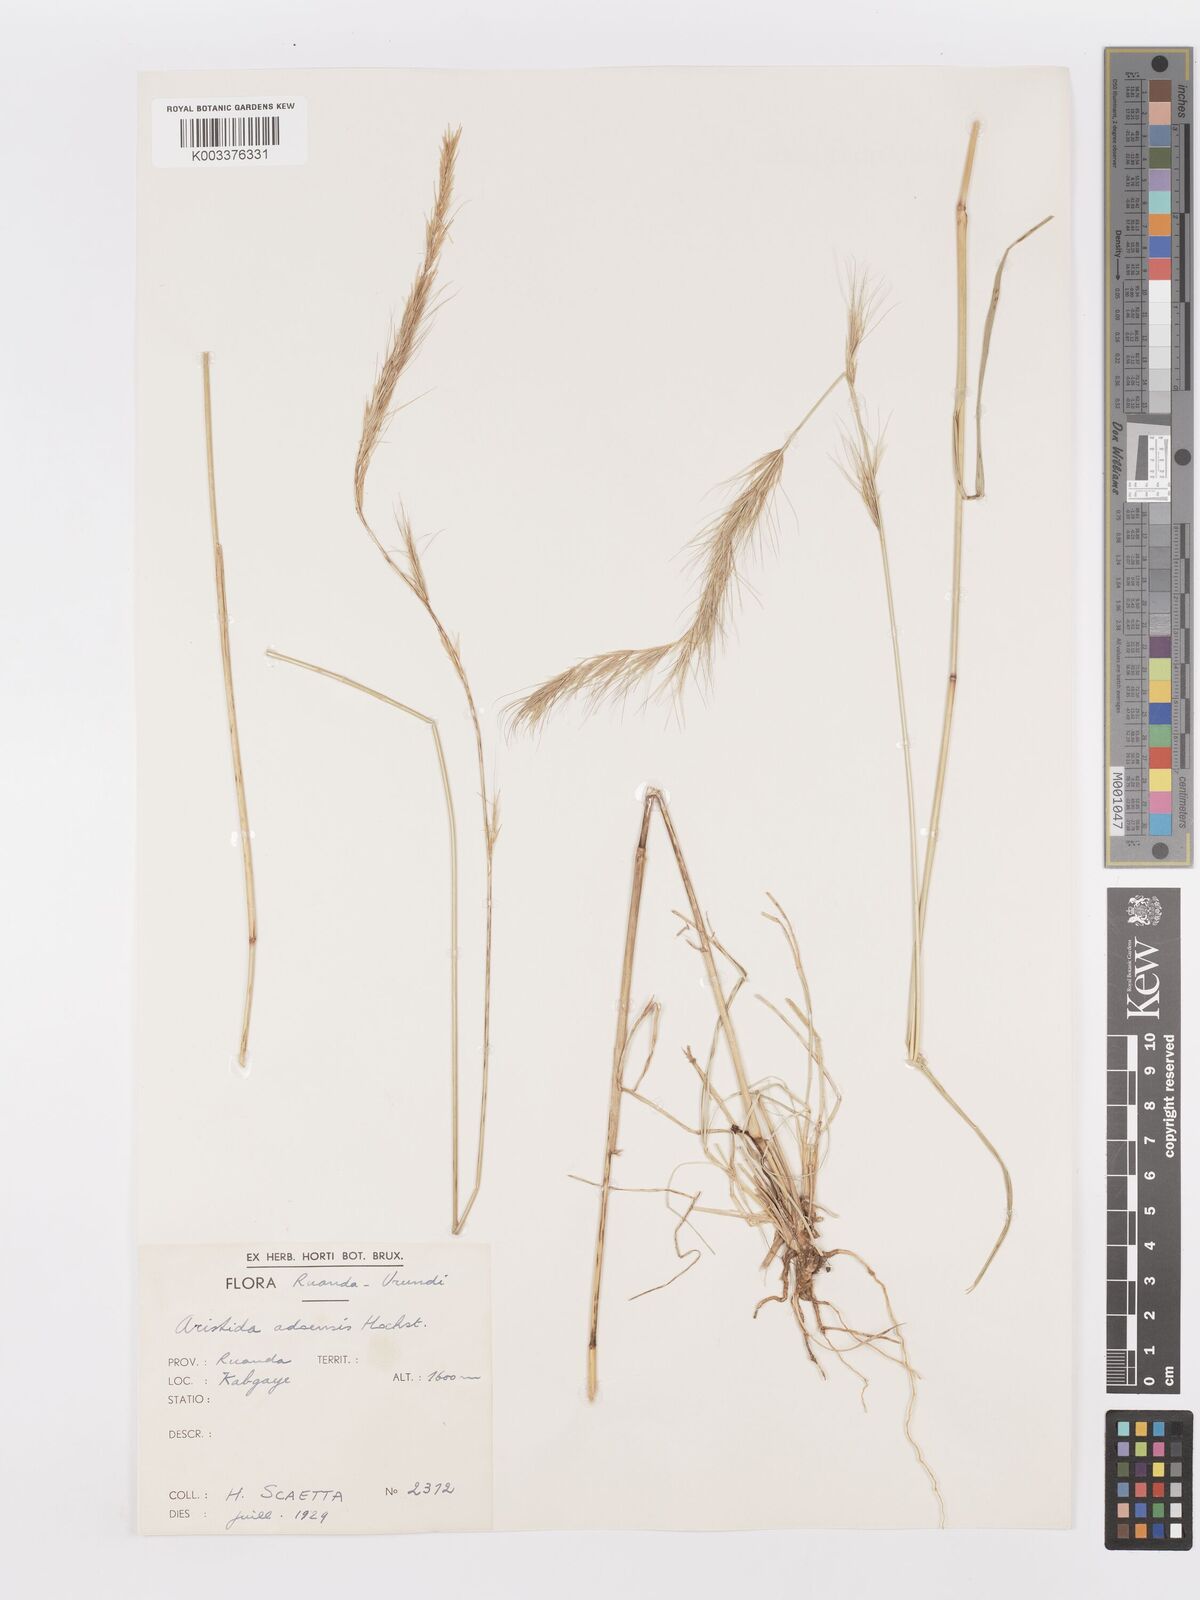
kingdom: Plantae
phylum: Tracheophyta
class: Liliopsida
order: Poales
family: Poaceae
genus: Aristida
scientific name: Aristida adoensis
